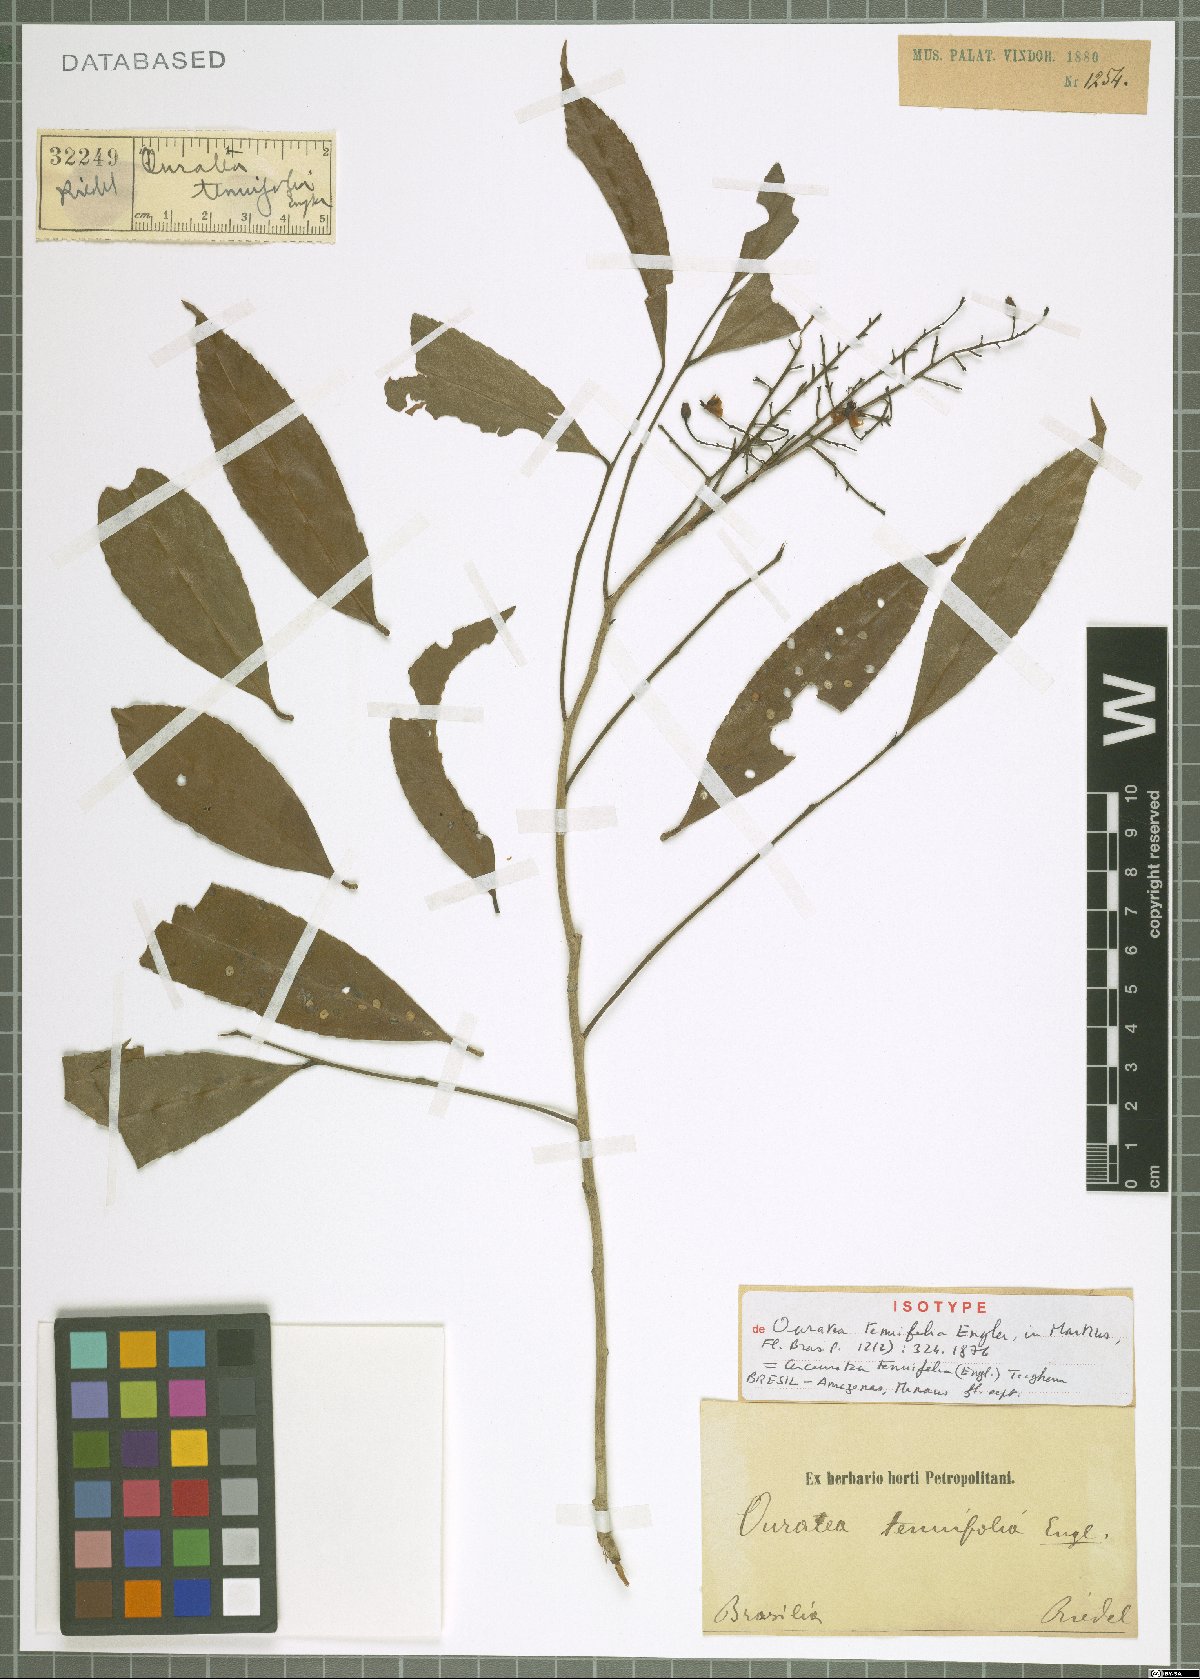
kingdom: Plantae
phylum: Tracheophyta
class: Magnoliopsida
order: Malpighiales
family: Ochnaceae
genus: Ouratea
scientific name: Ouratea tenuifolia
